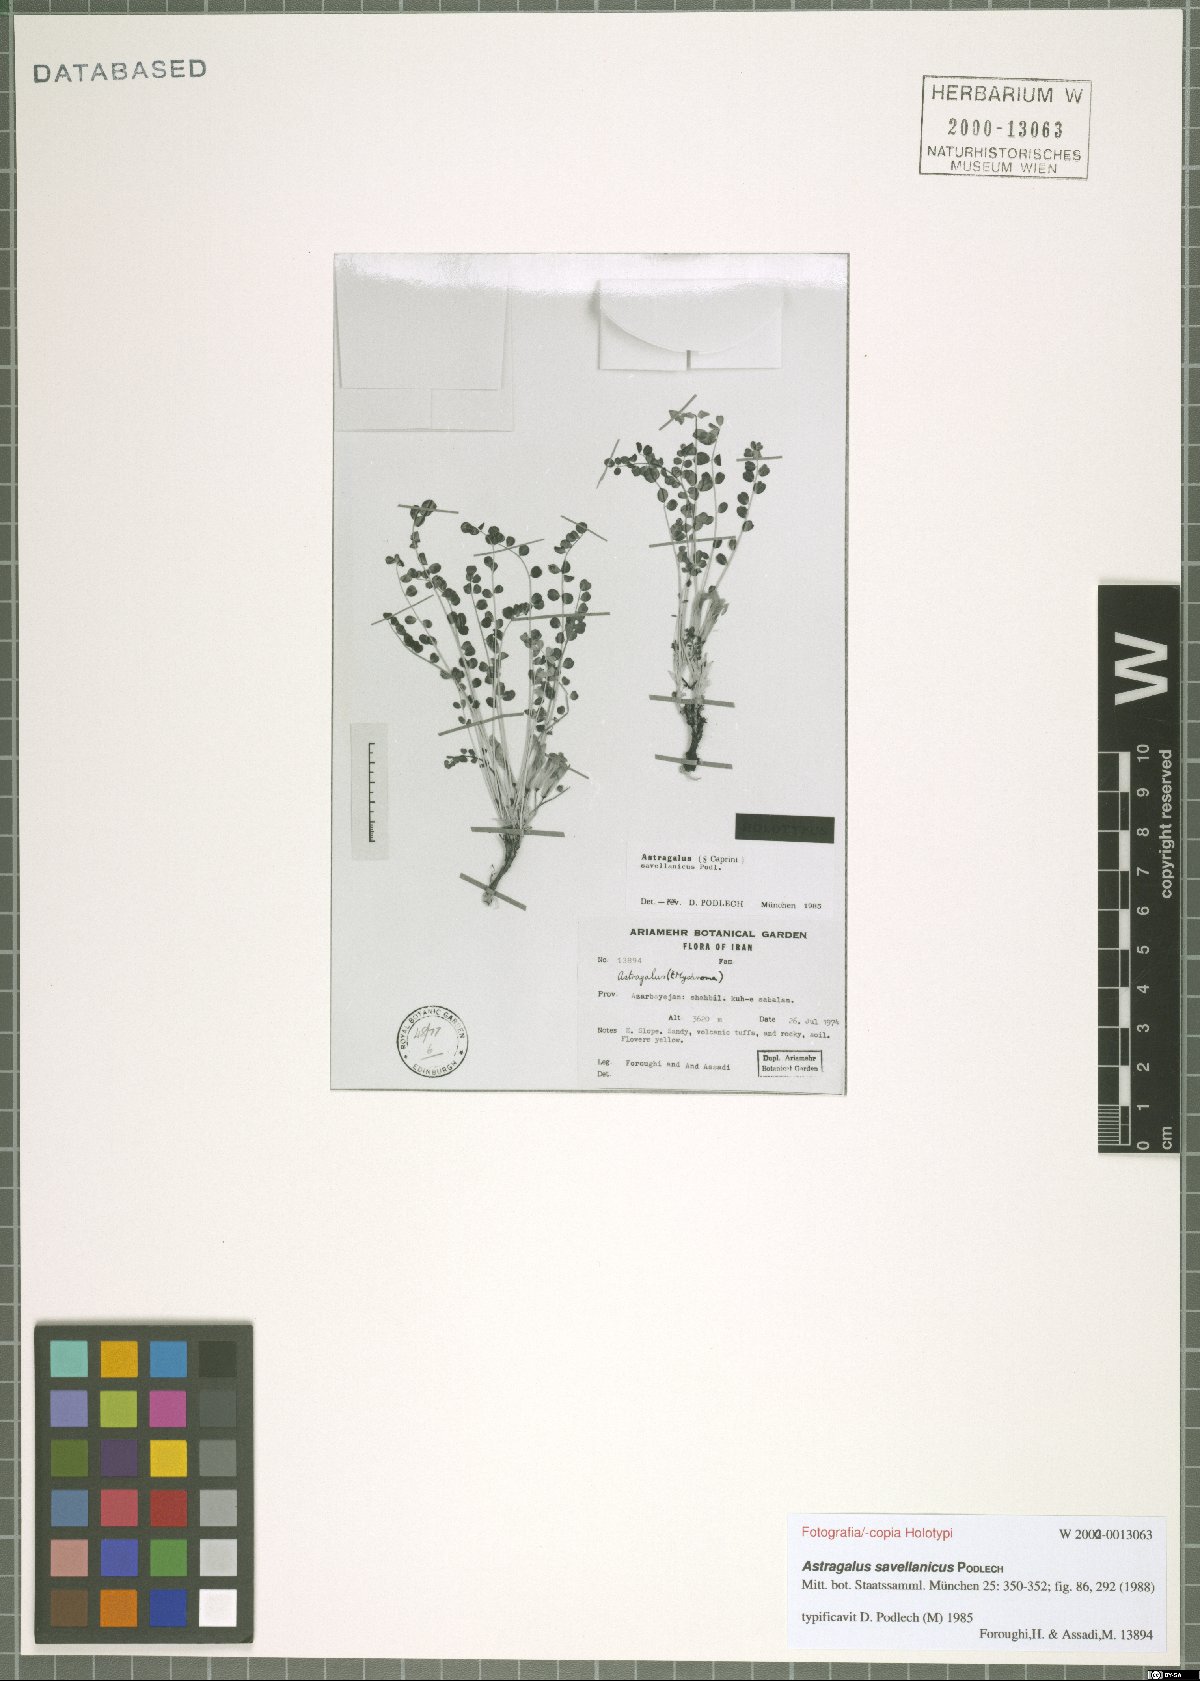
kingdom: Plantae
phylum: Tracheophyta
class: Magnoliopsida
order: Fabales
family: Fabaceae
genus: Astragalus
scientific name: Astragalus savellanicus
